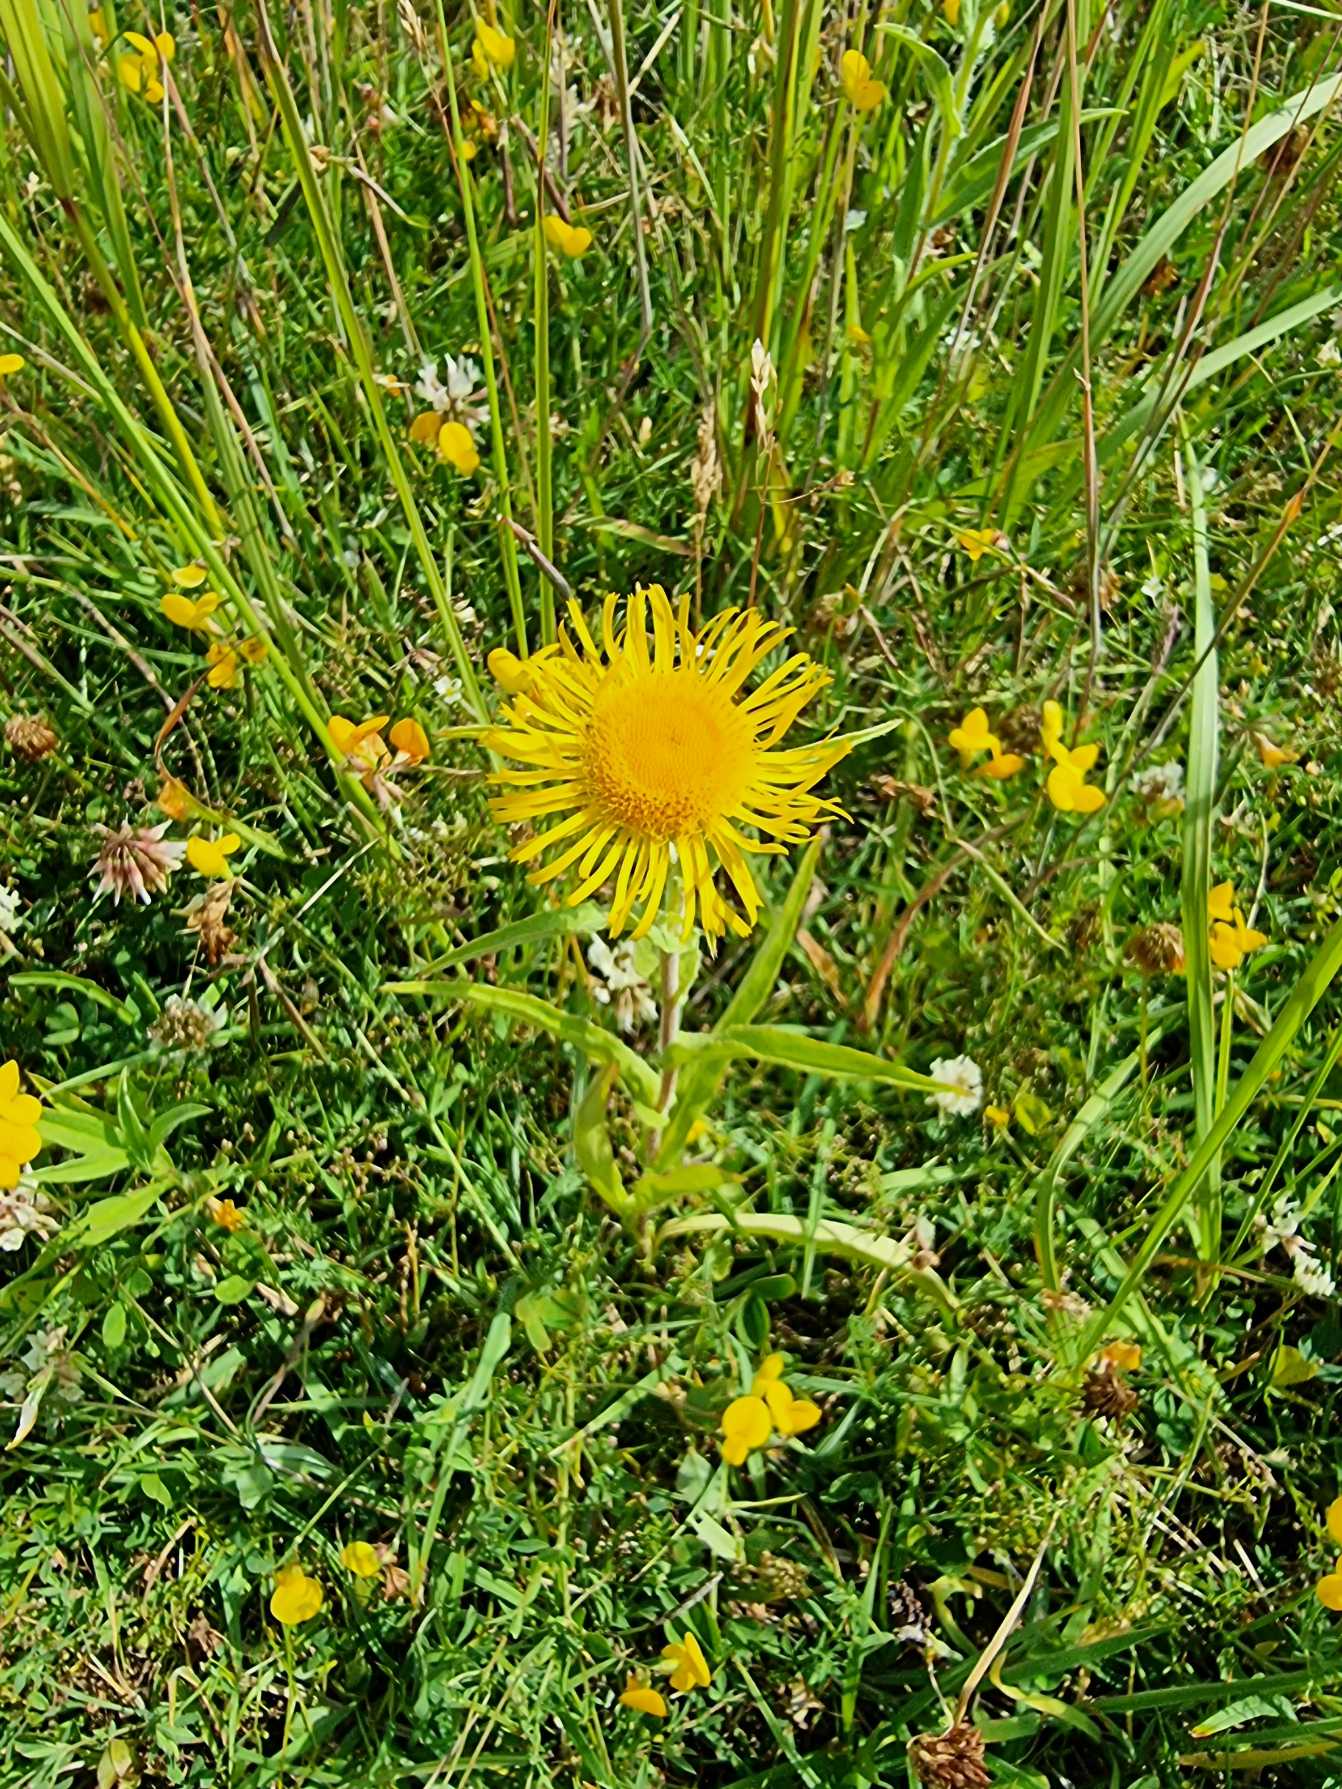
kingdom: Plantae
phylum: Tracheophyta
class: Magnoliopsida
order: Asterales
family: Asteraceae
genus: Pentanema
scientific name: Pentanema britannicum
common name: Soløje-alant
